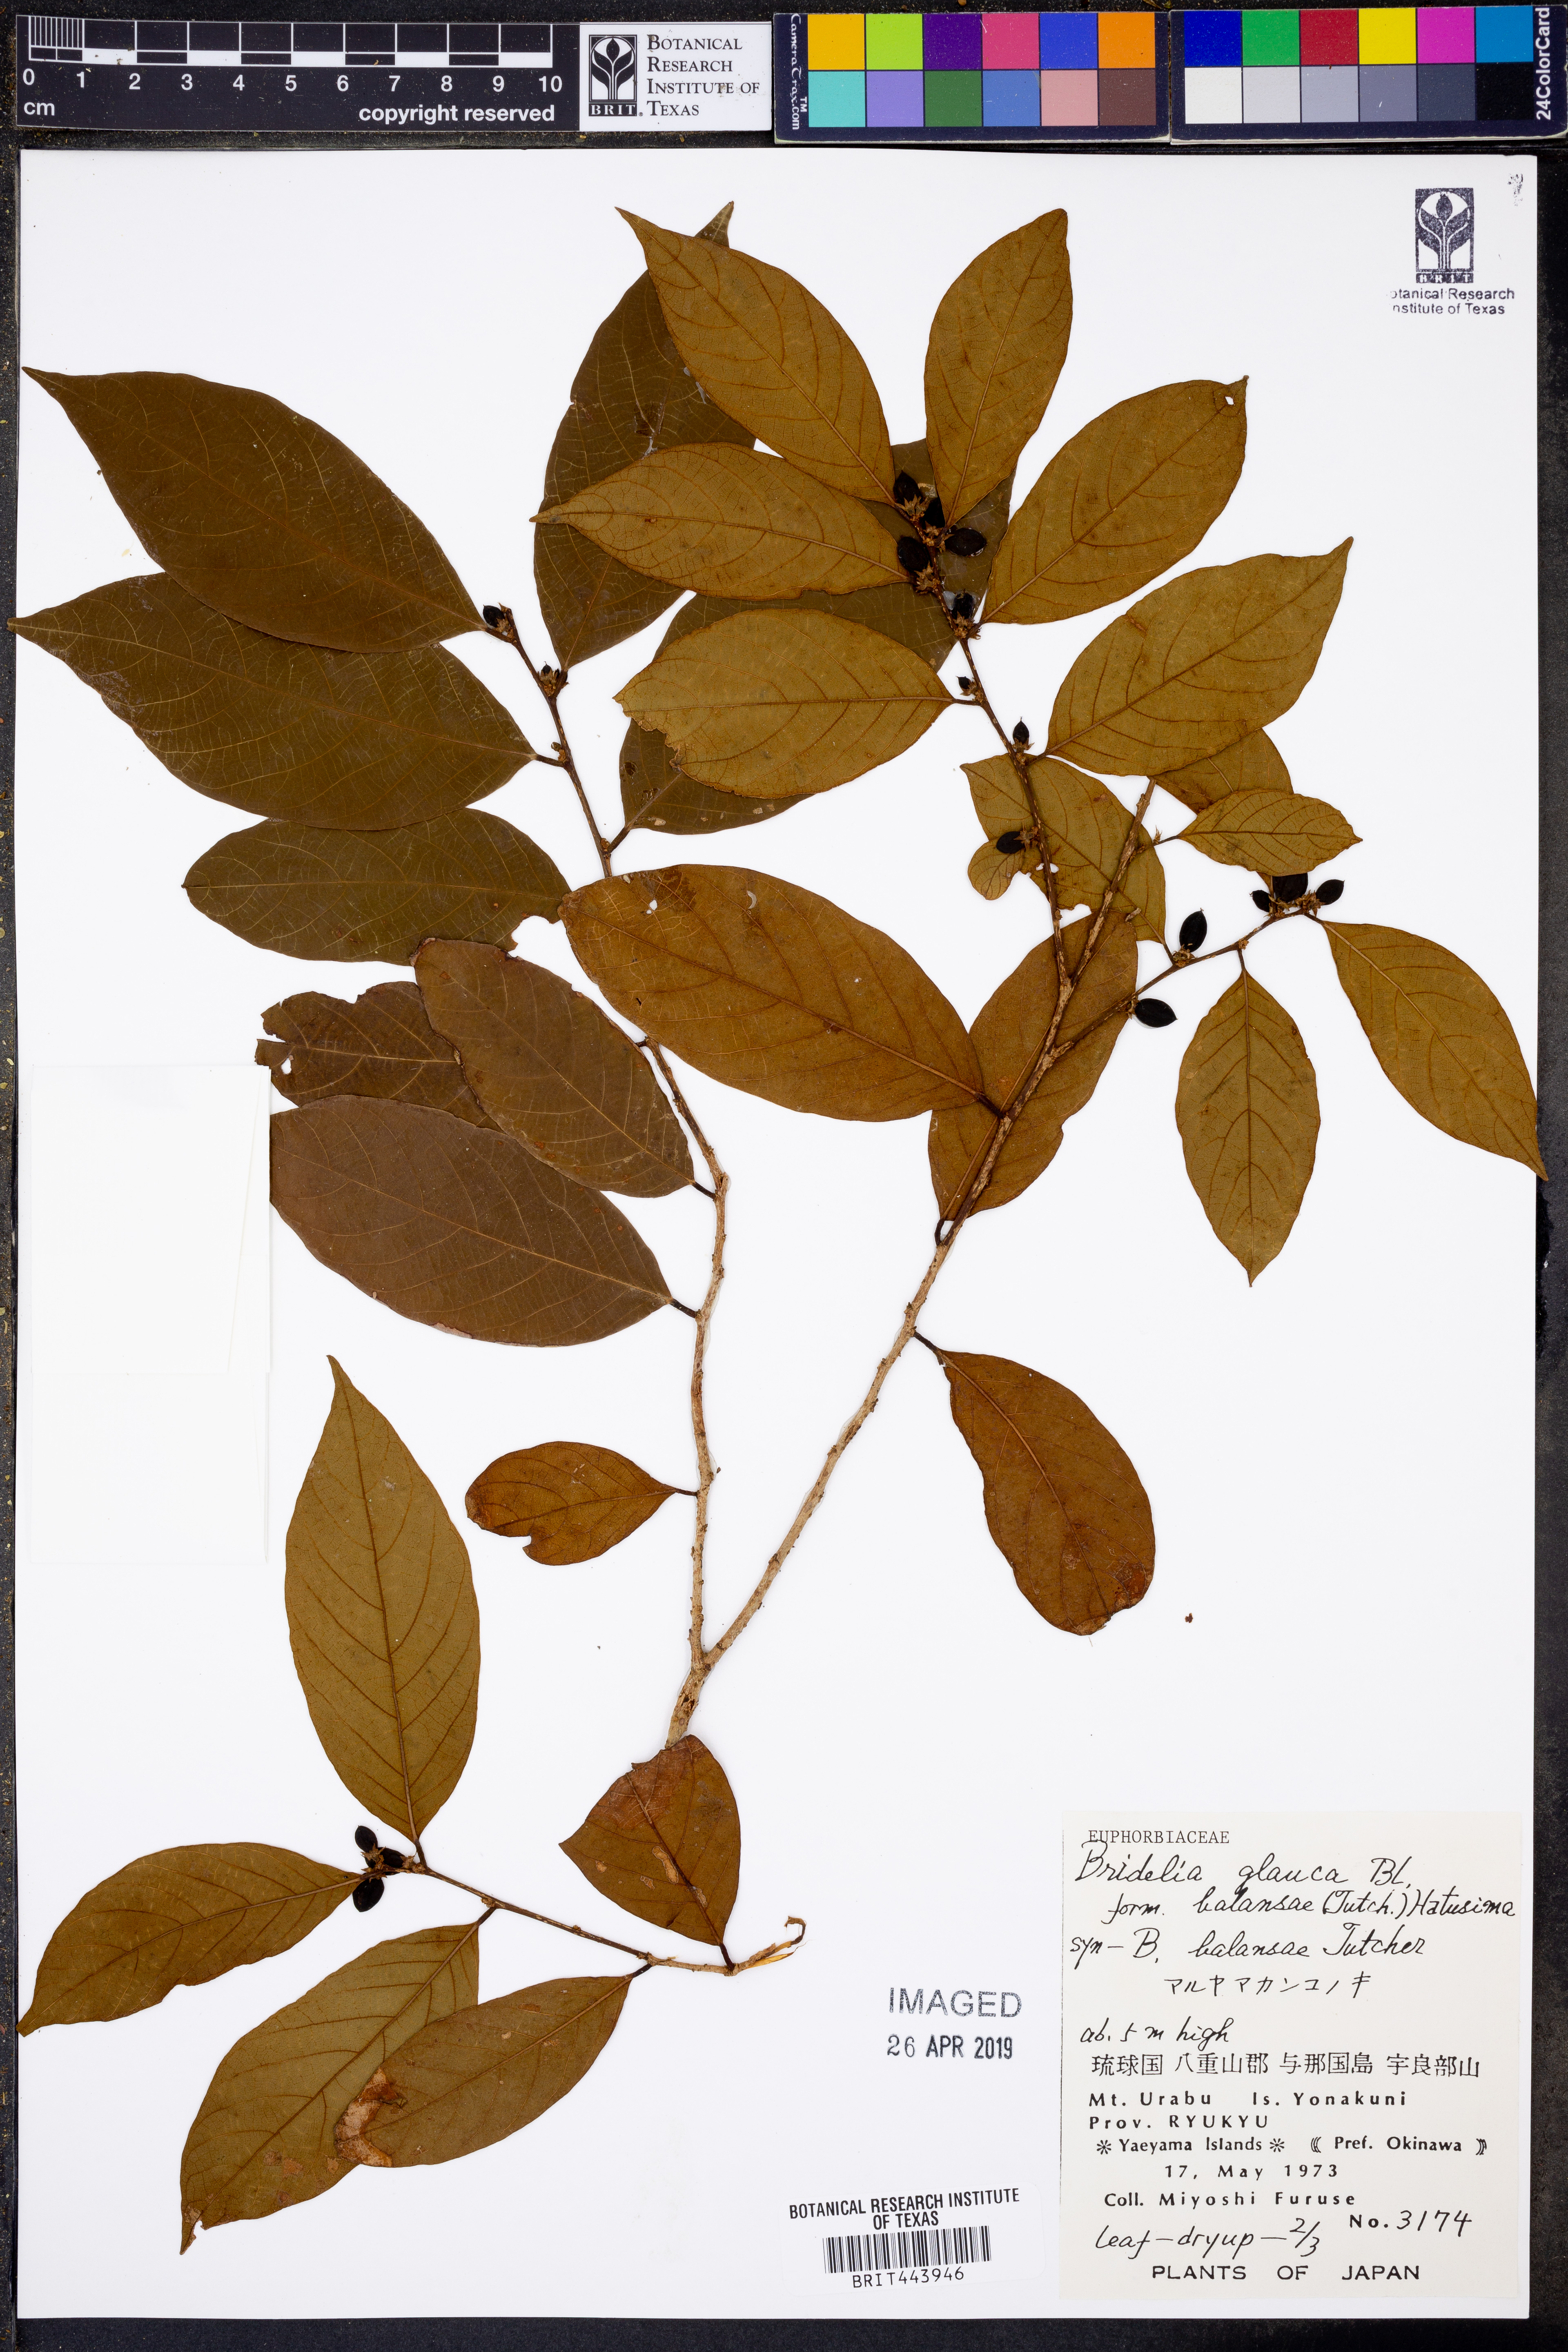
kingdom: Plantae
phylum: Tracheophyta
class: Magnoliopsida
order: Malpighiales
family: Phyllanthaceae
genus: Bridelia
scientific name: Bridelia glauca
